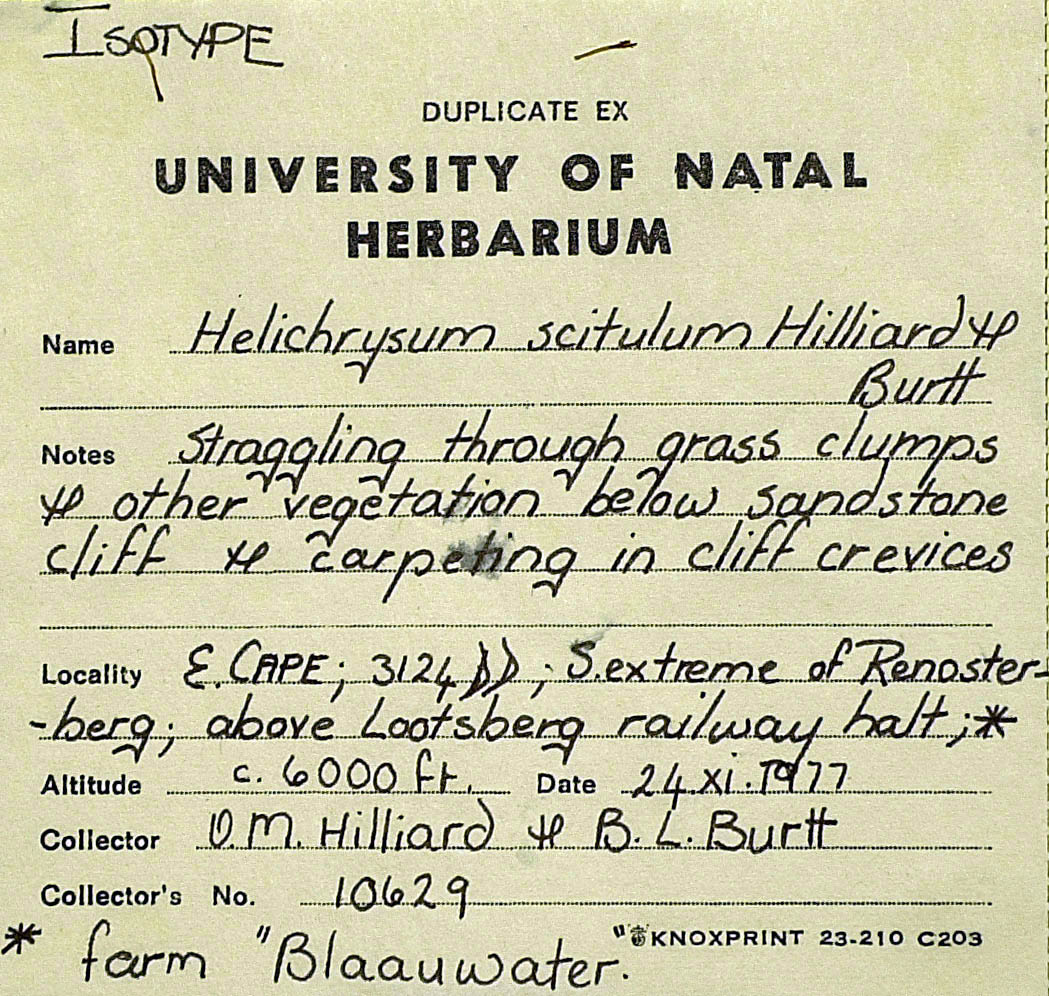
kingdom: Plantae
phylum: Tracheophyta
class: Magnoliopsida
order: Asterales
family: Asteraceae
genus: Helichrysum
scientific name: Helichrysum scitulum
